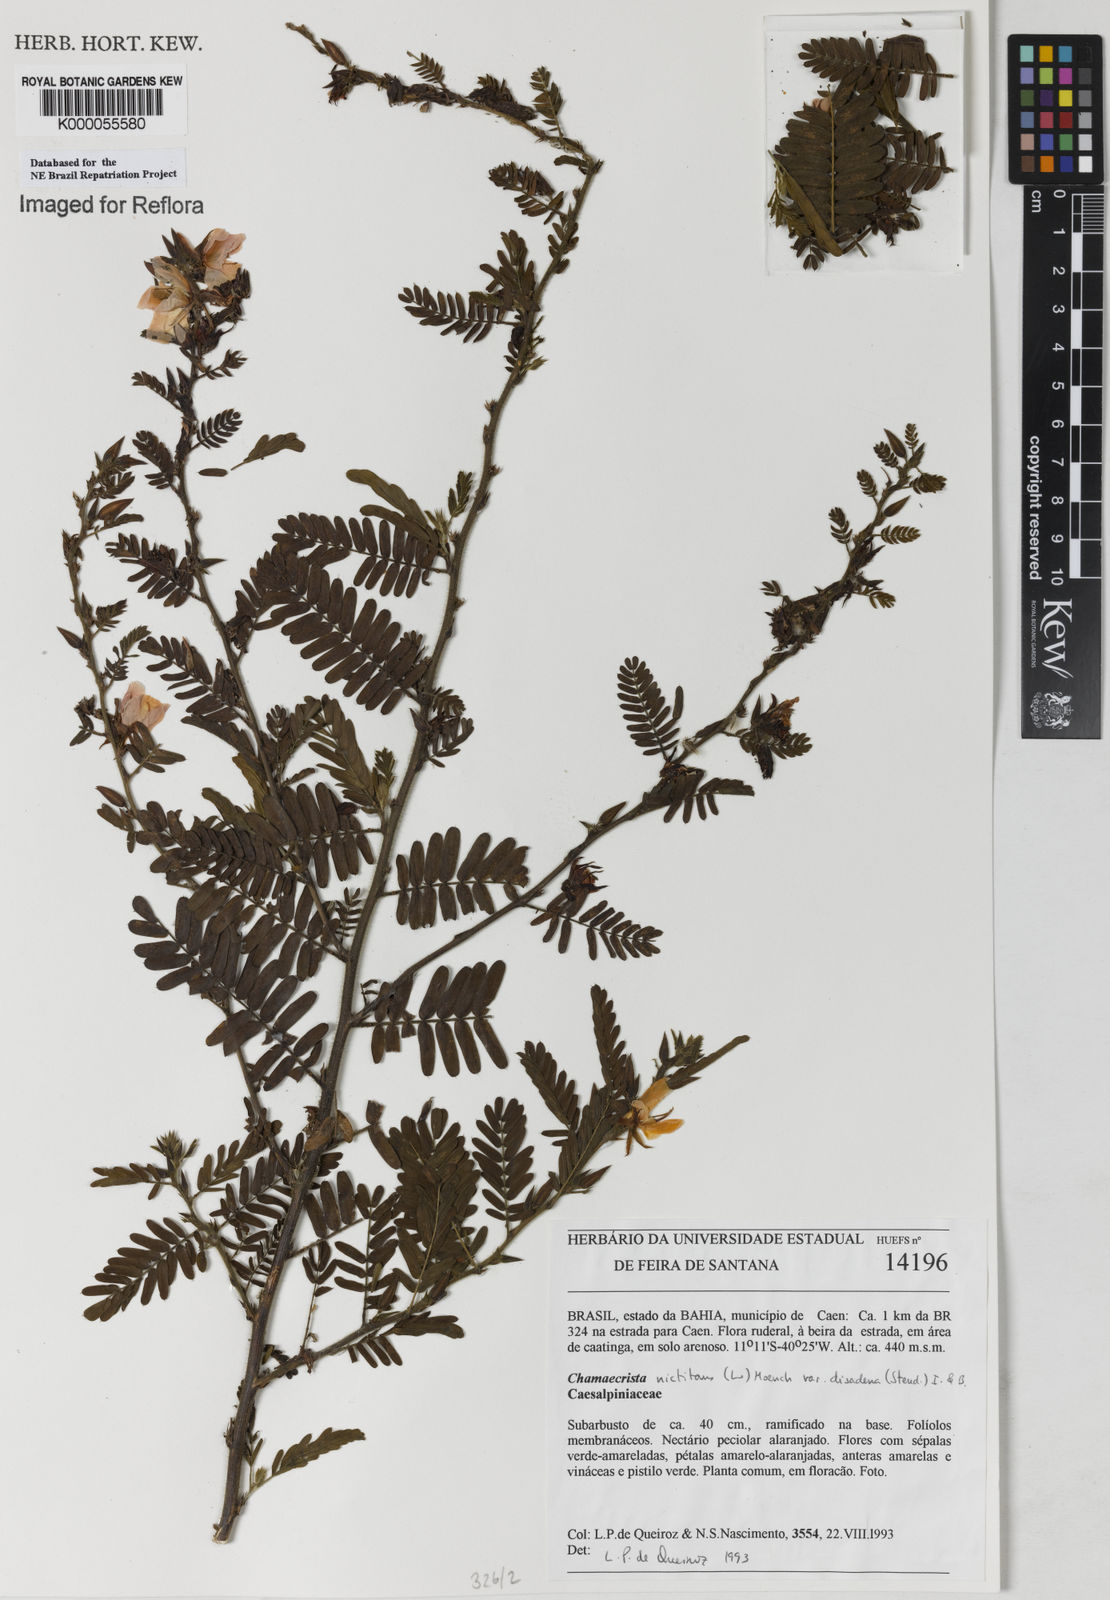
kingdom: Plantae
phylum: Tracheophyta
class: Magnoliopsida
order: Fabales
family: Fabaceae
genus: Chamaecrista
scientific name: Chamaecrista nictitans
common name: Sensitive cassia
